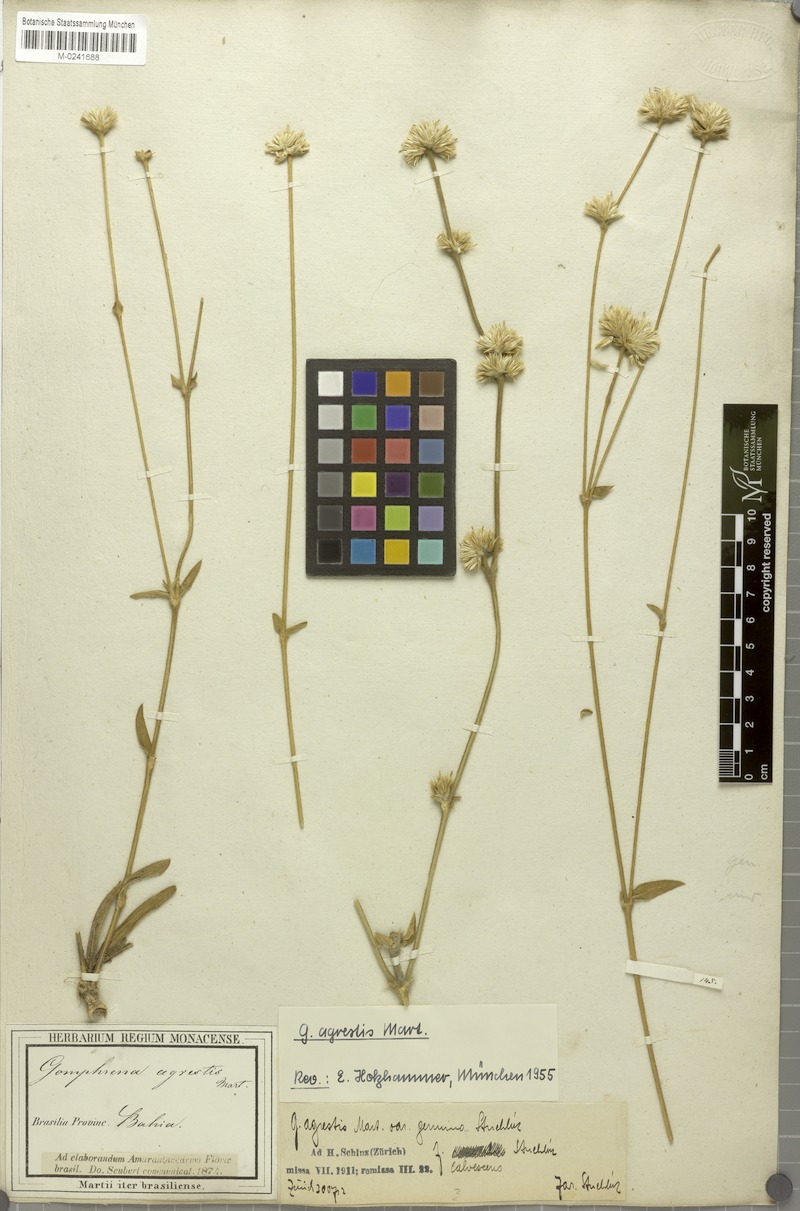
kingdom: Plantae
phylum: Tracheophyta
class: Magnoliopsida
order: Caryophyllales
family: Amaranthaceae
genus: Gomphrena
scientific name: Gomphrena agrestis
